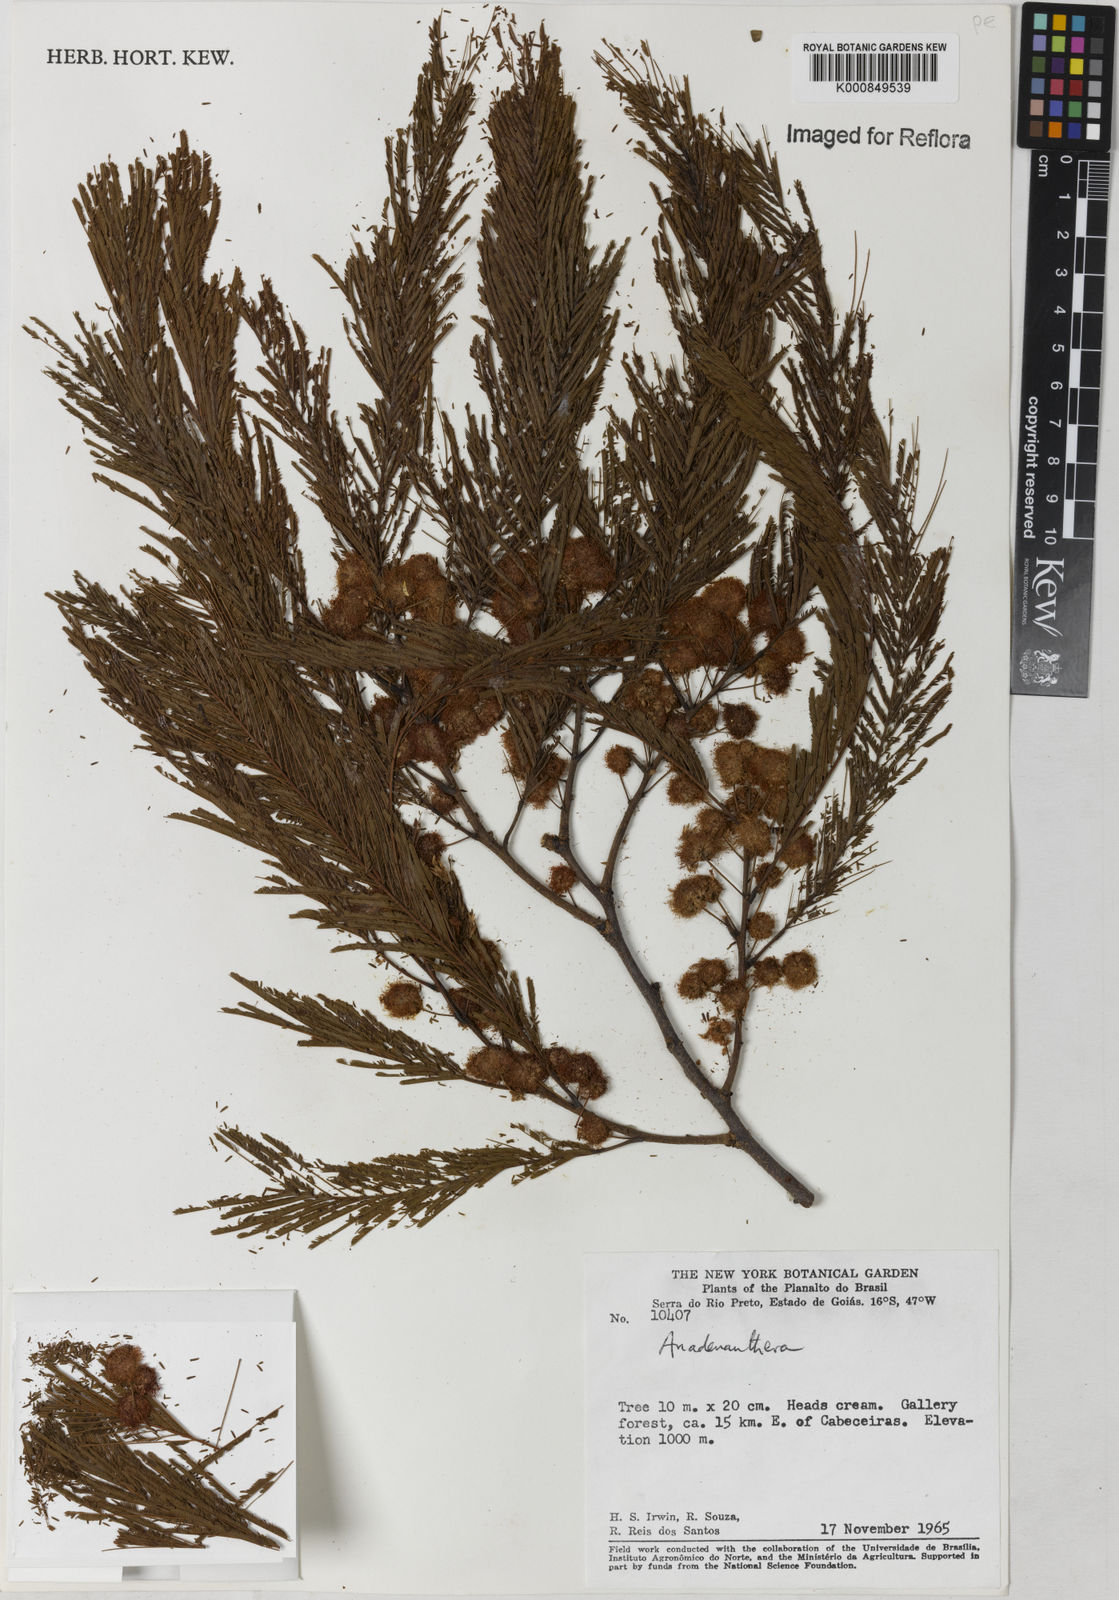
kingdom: Plantae
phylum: Tracheophyta
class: Magnoliopsida
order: Fabales
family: Fabaceae
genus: Anadenanthera
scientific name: Anadenanthera
